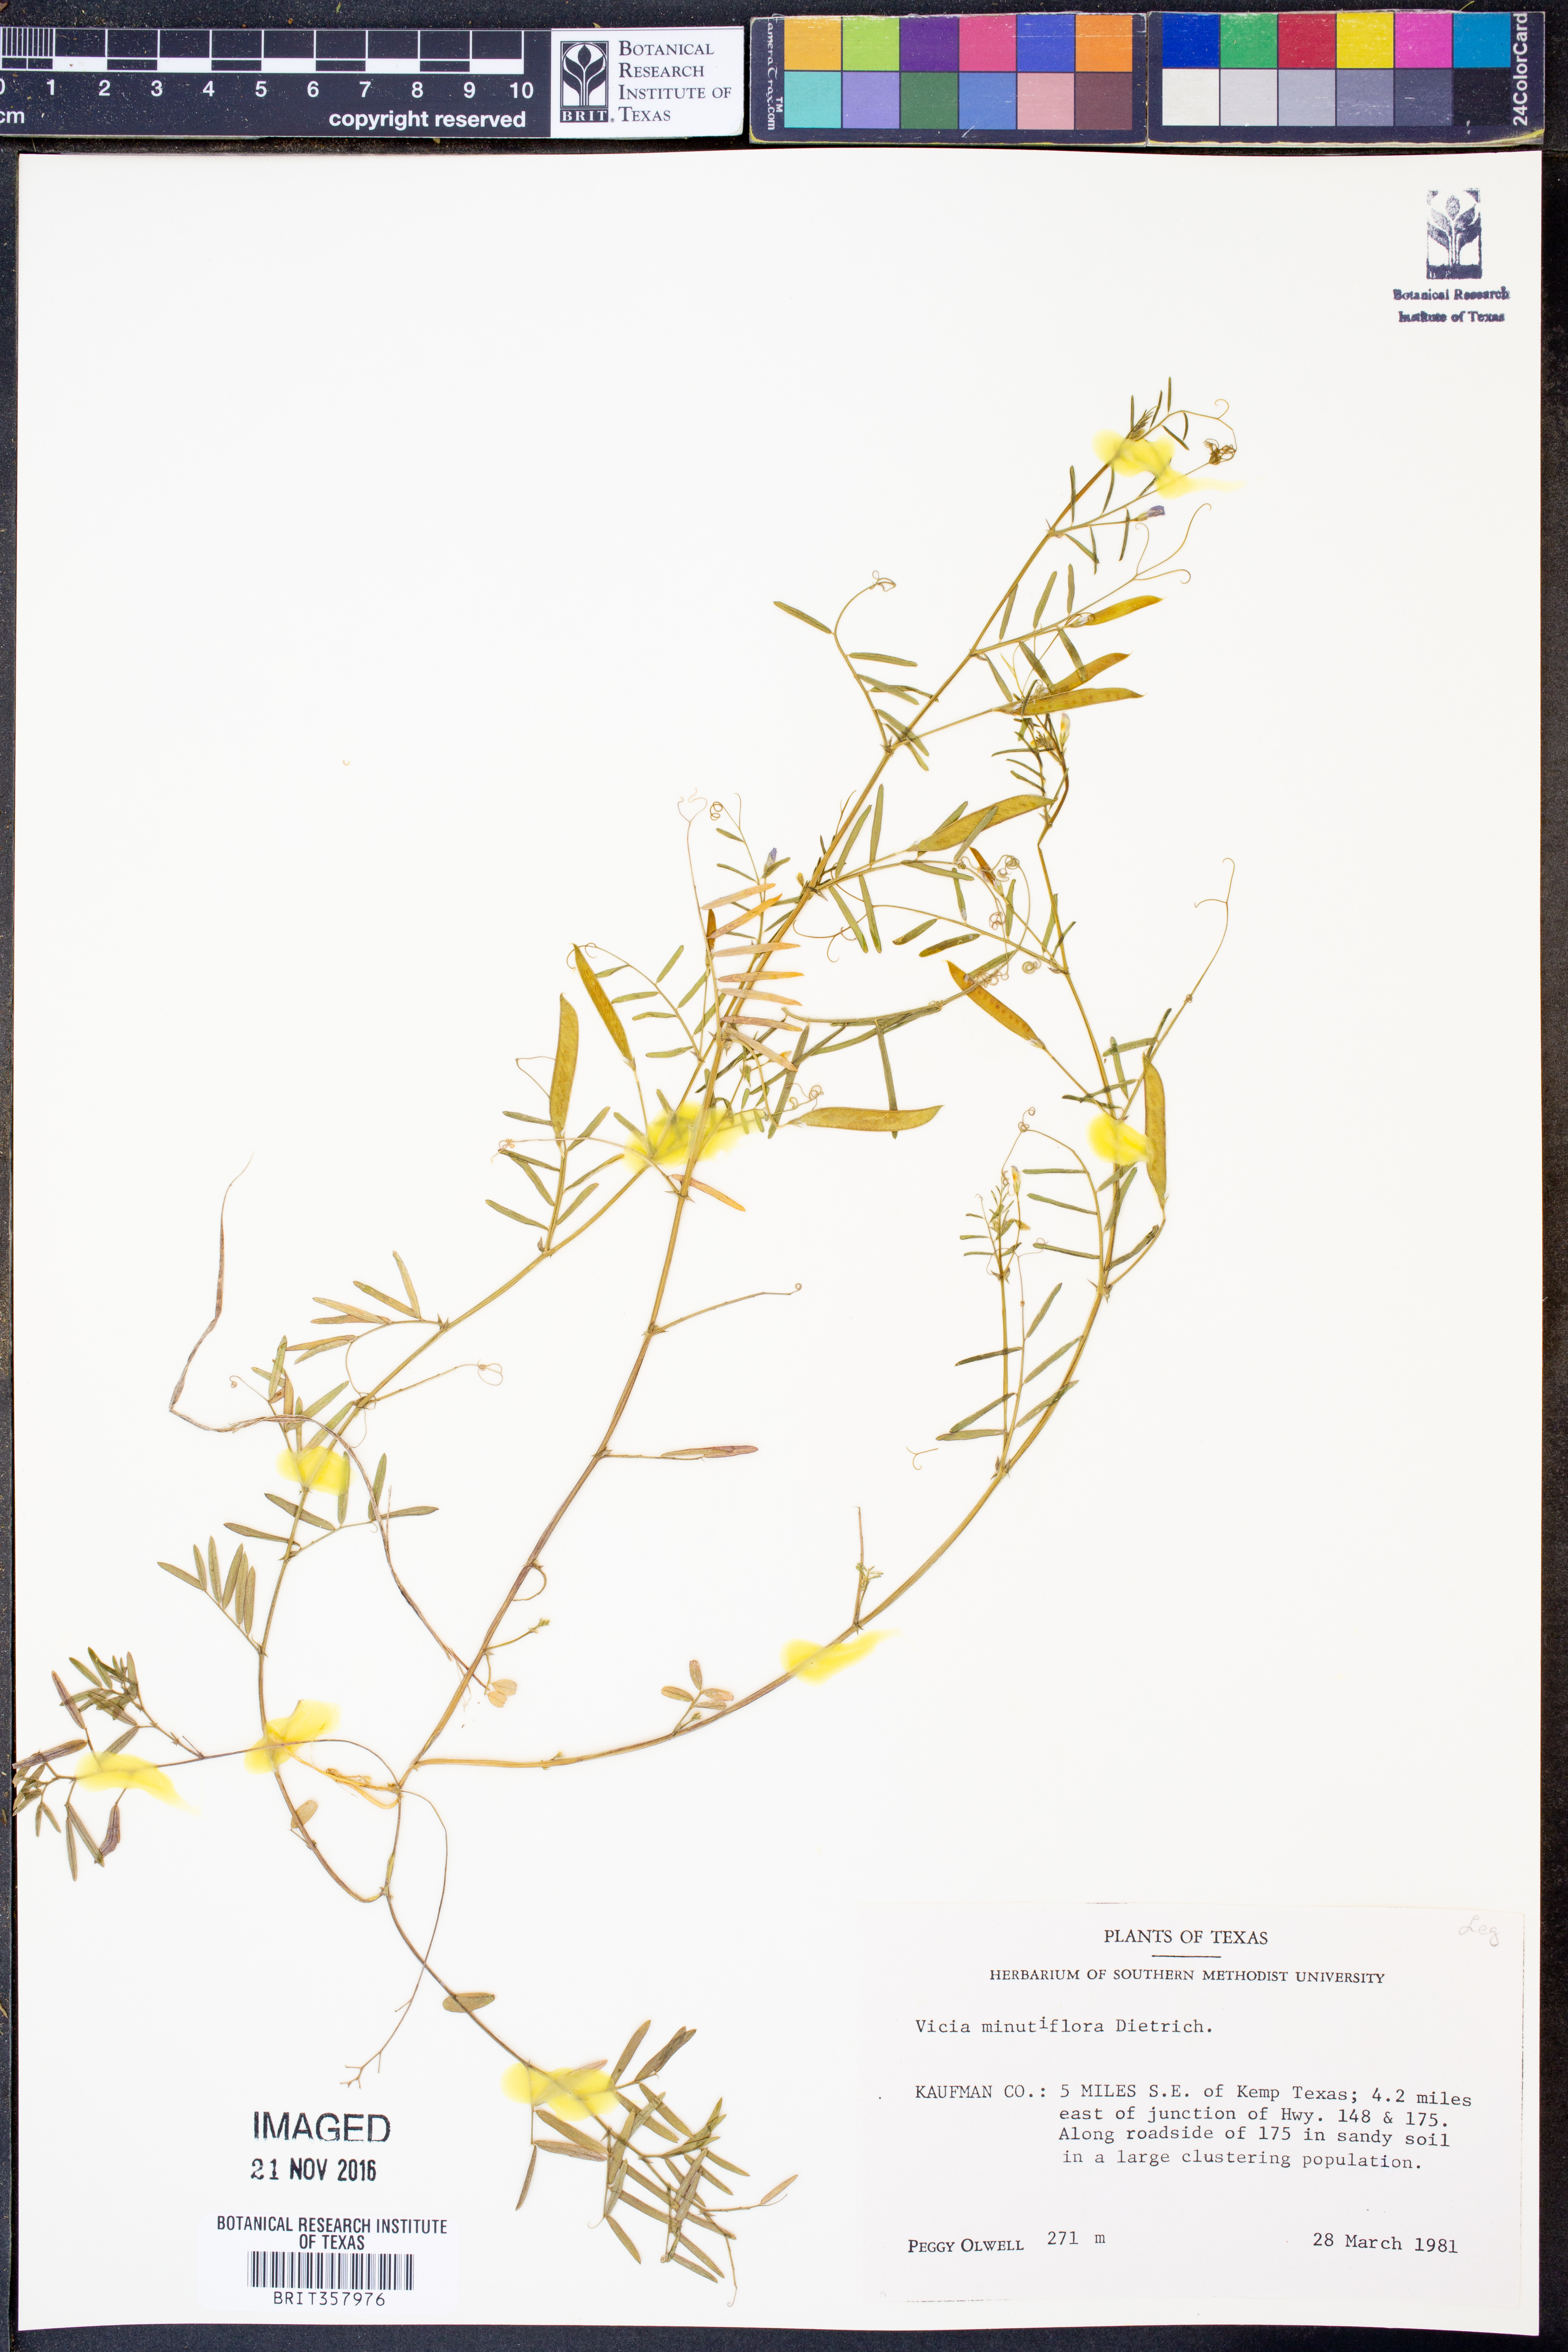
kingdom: Plantae
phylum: Tracheophyta
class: Magnoliopsida
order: Fabales
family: Fabaceae
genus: Vicia
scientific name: Vicia minutiflora
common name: Pygmy-flower vetch
